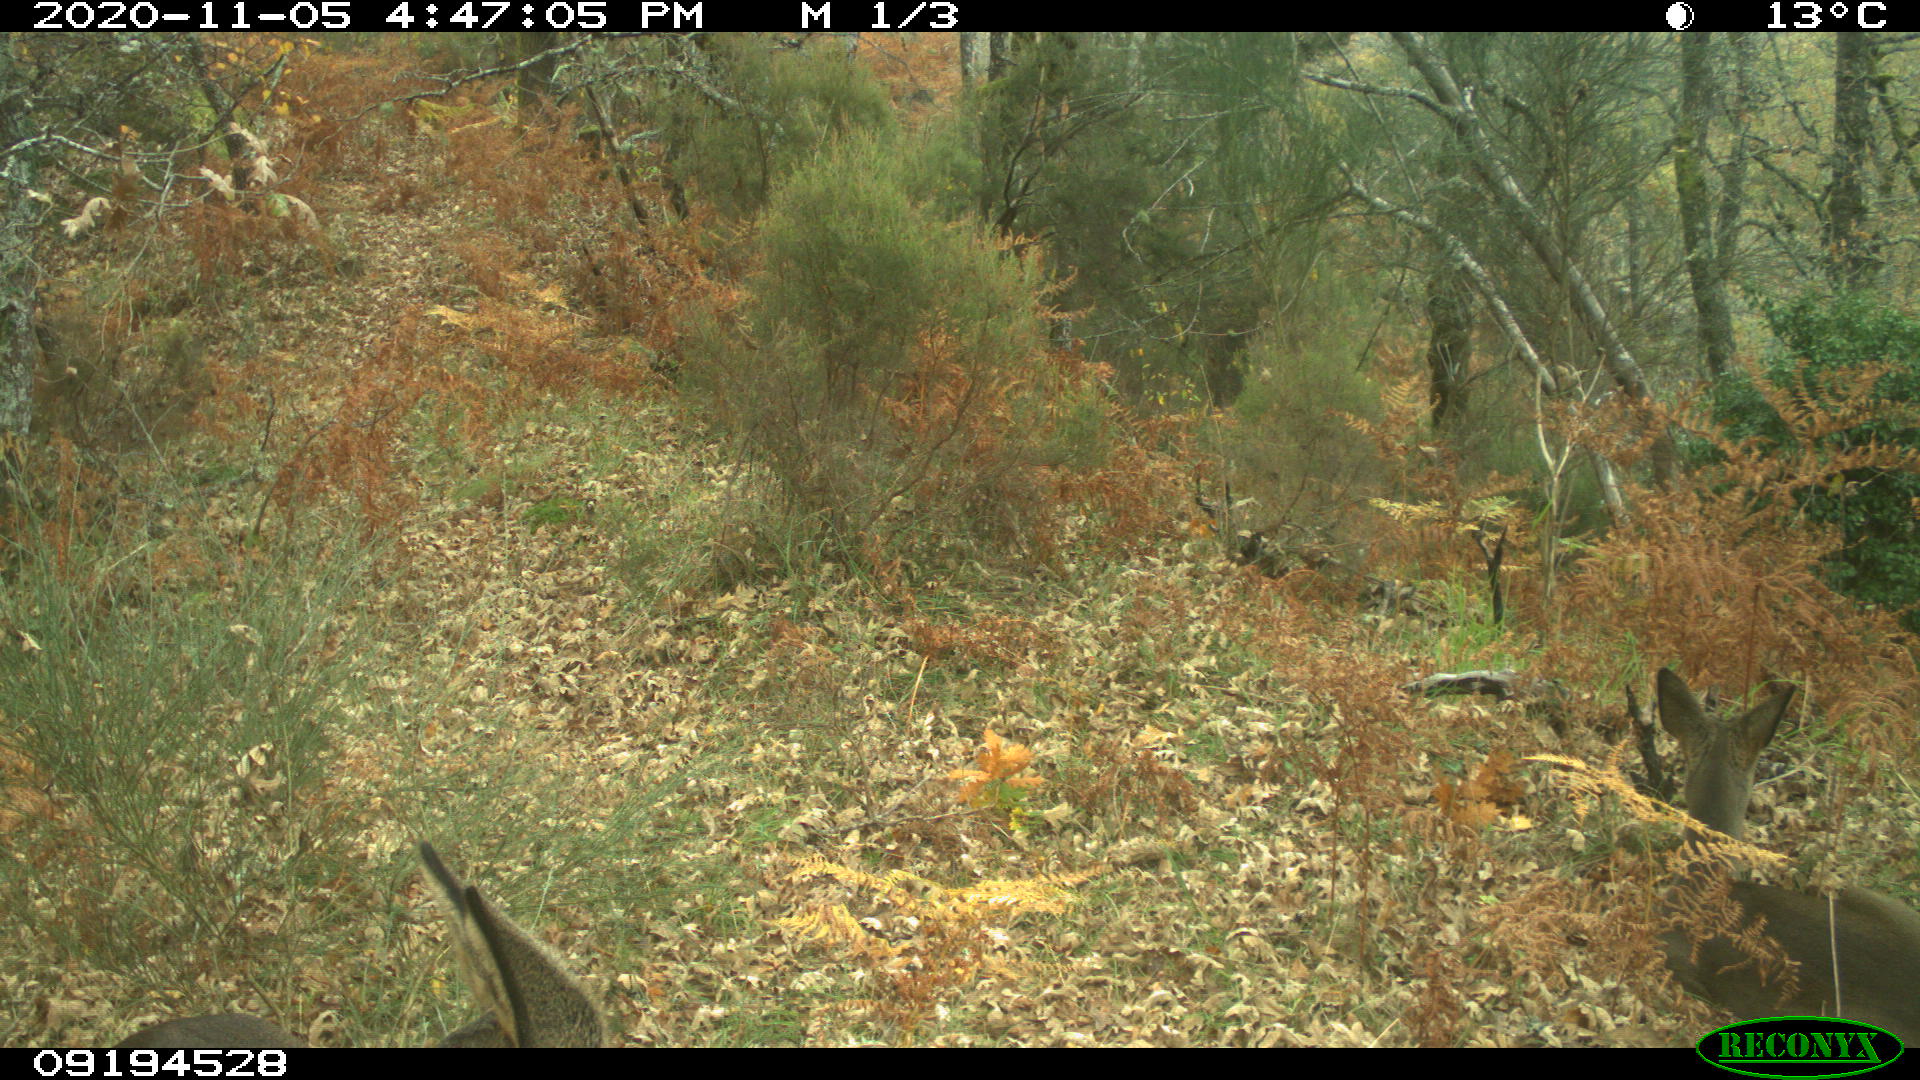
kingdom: Animalia
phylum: Chordata
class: Mammalia
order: Artiodactyla
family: Cervidae
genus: Capreolus
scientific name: Capreolus capreolus
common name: Western roe deer
